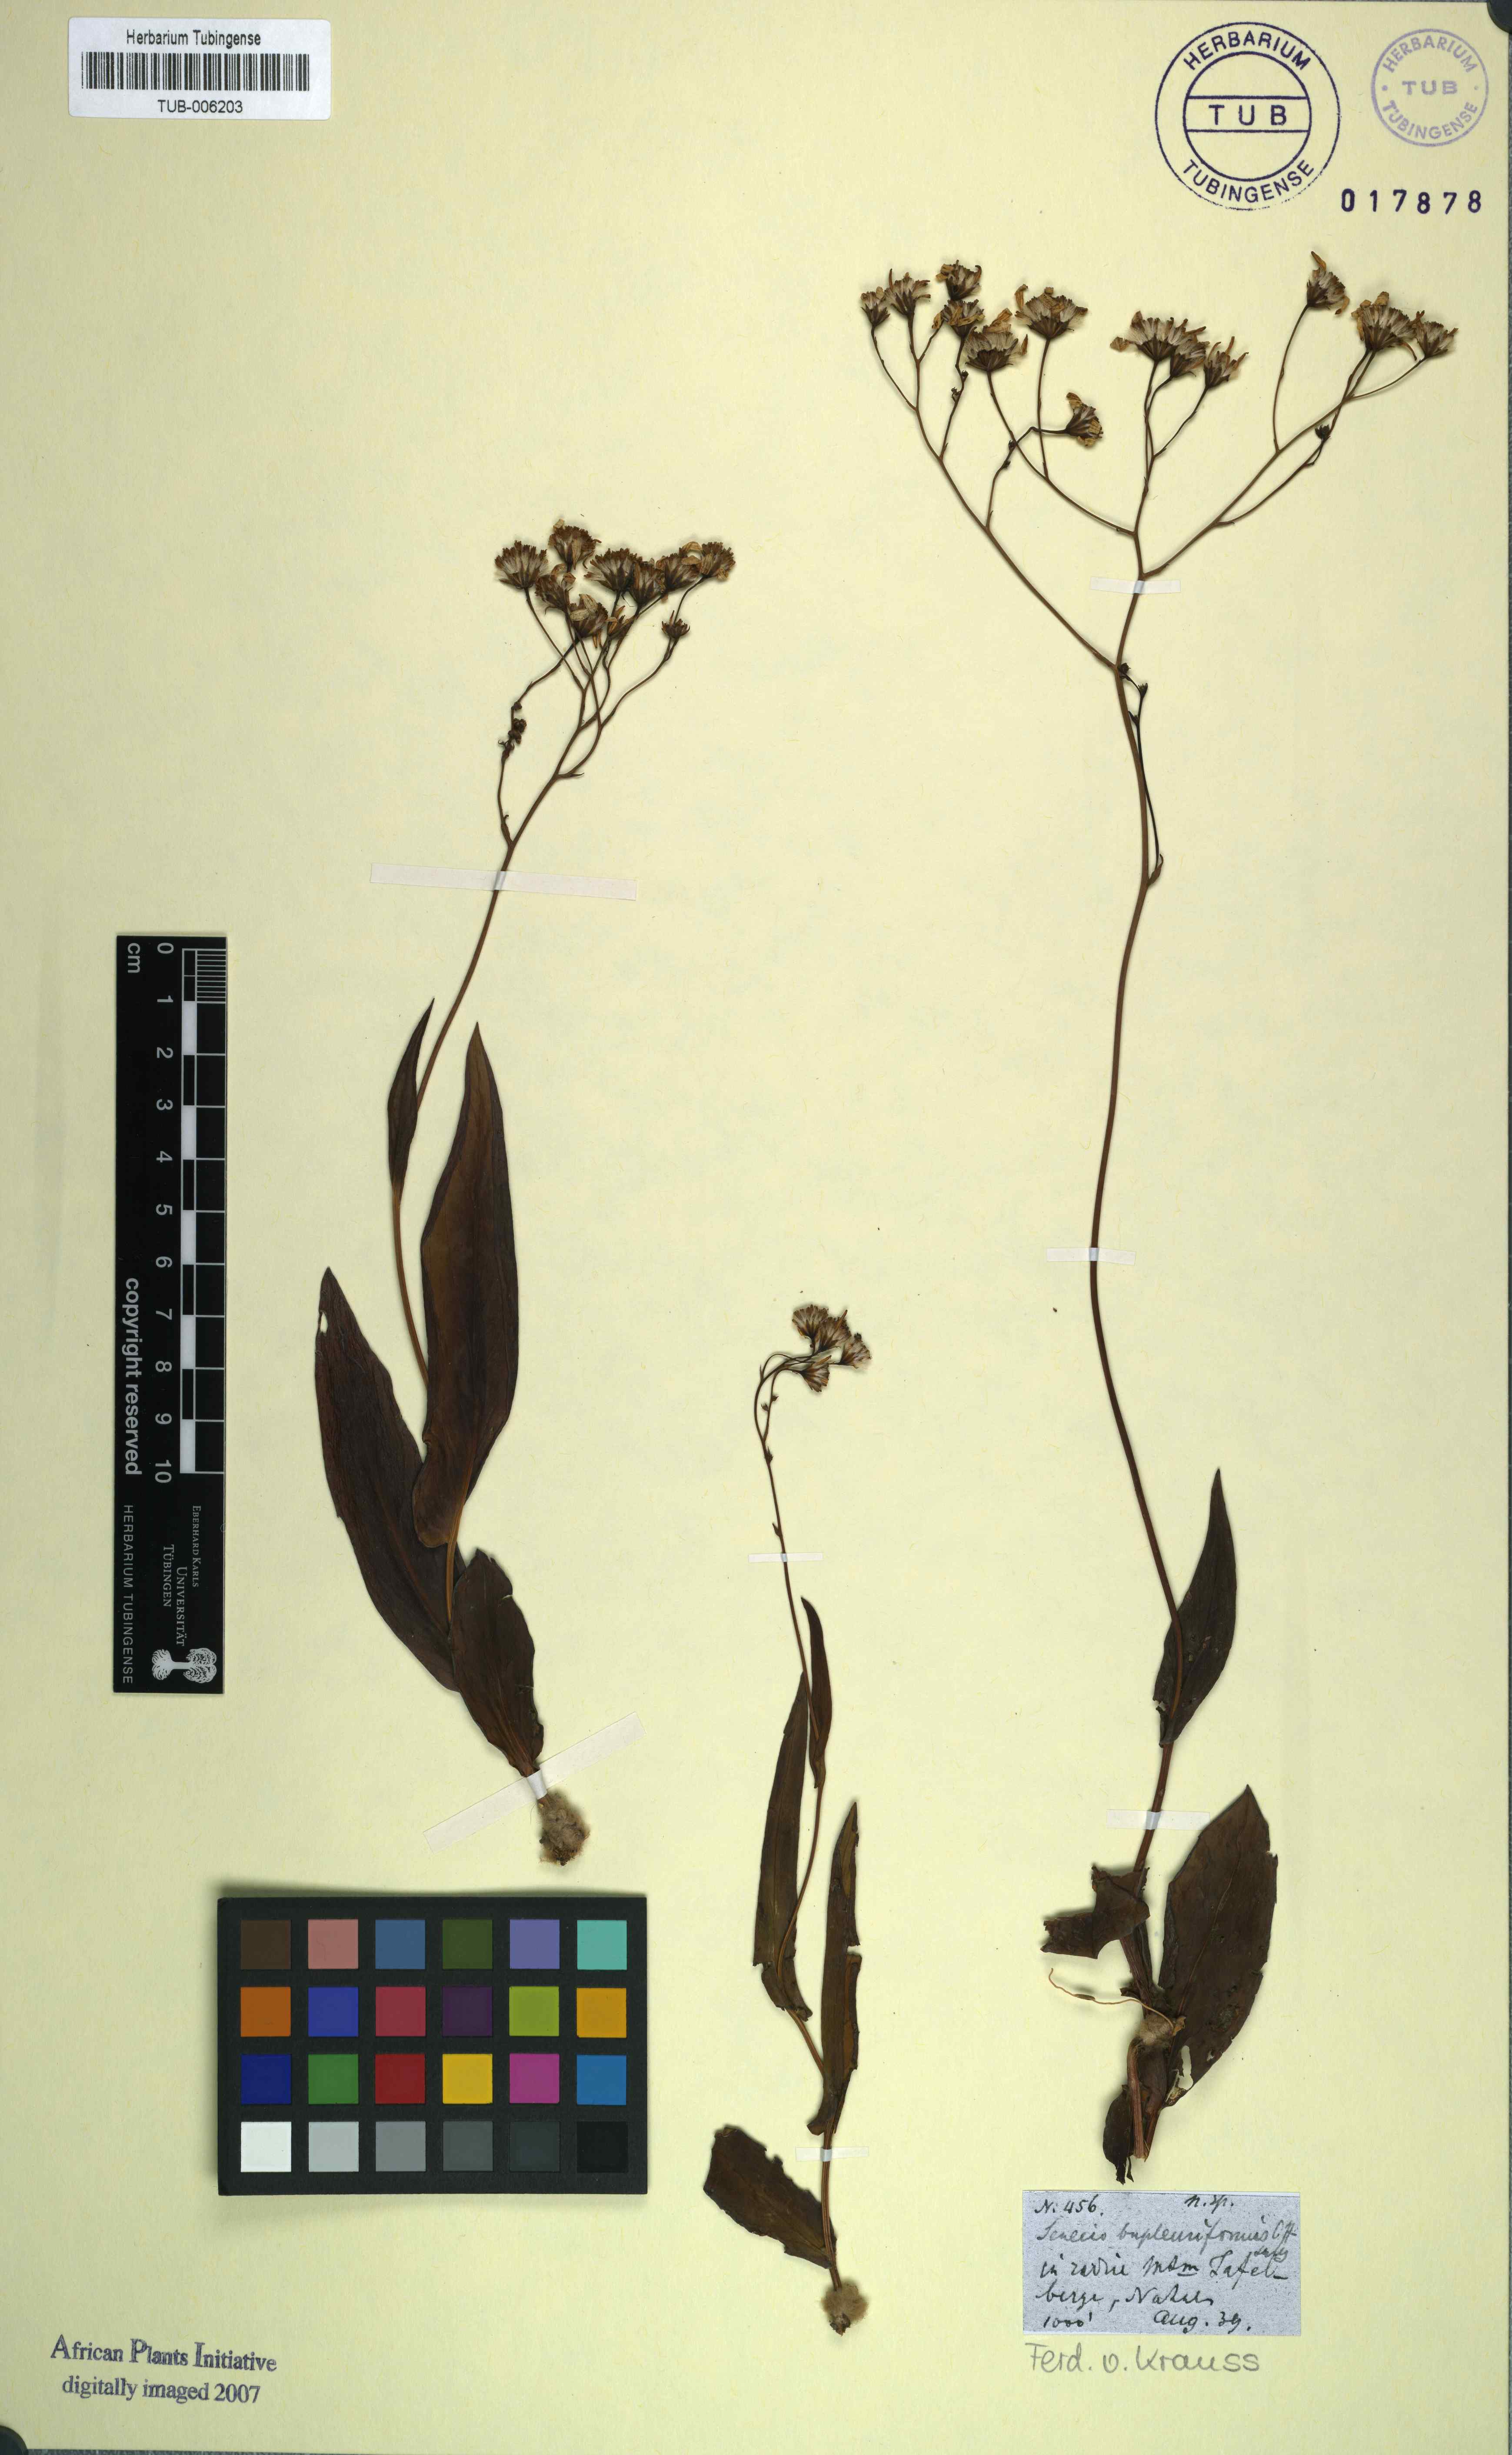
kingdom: Plantae
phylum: Tracheophyta
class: Magnoliopsida
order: Asterales
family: Asteraceae
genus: Senecio
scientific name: Senecio bupleuroides
